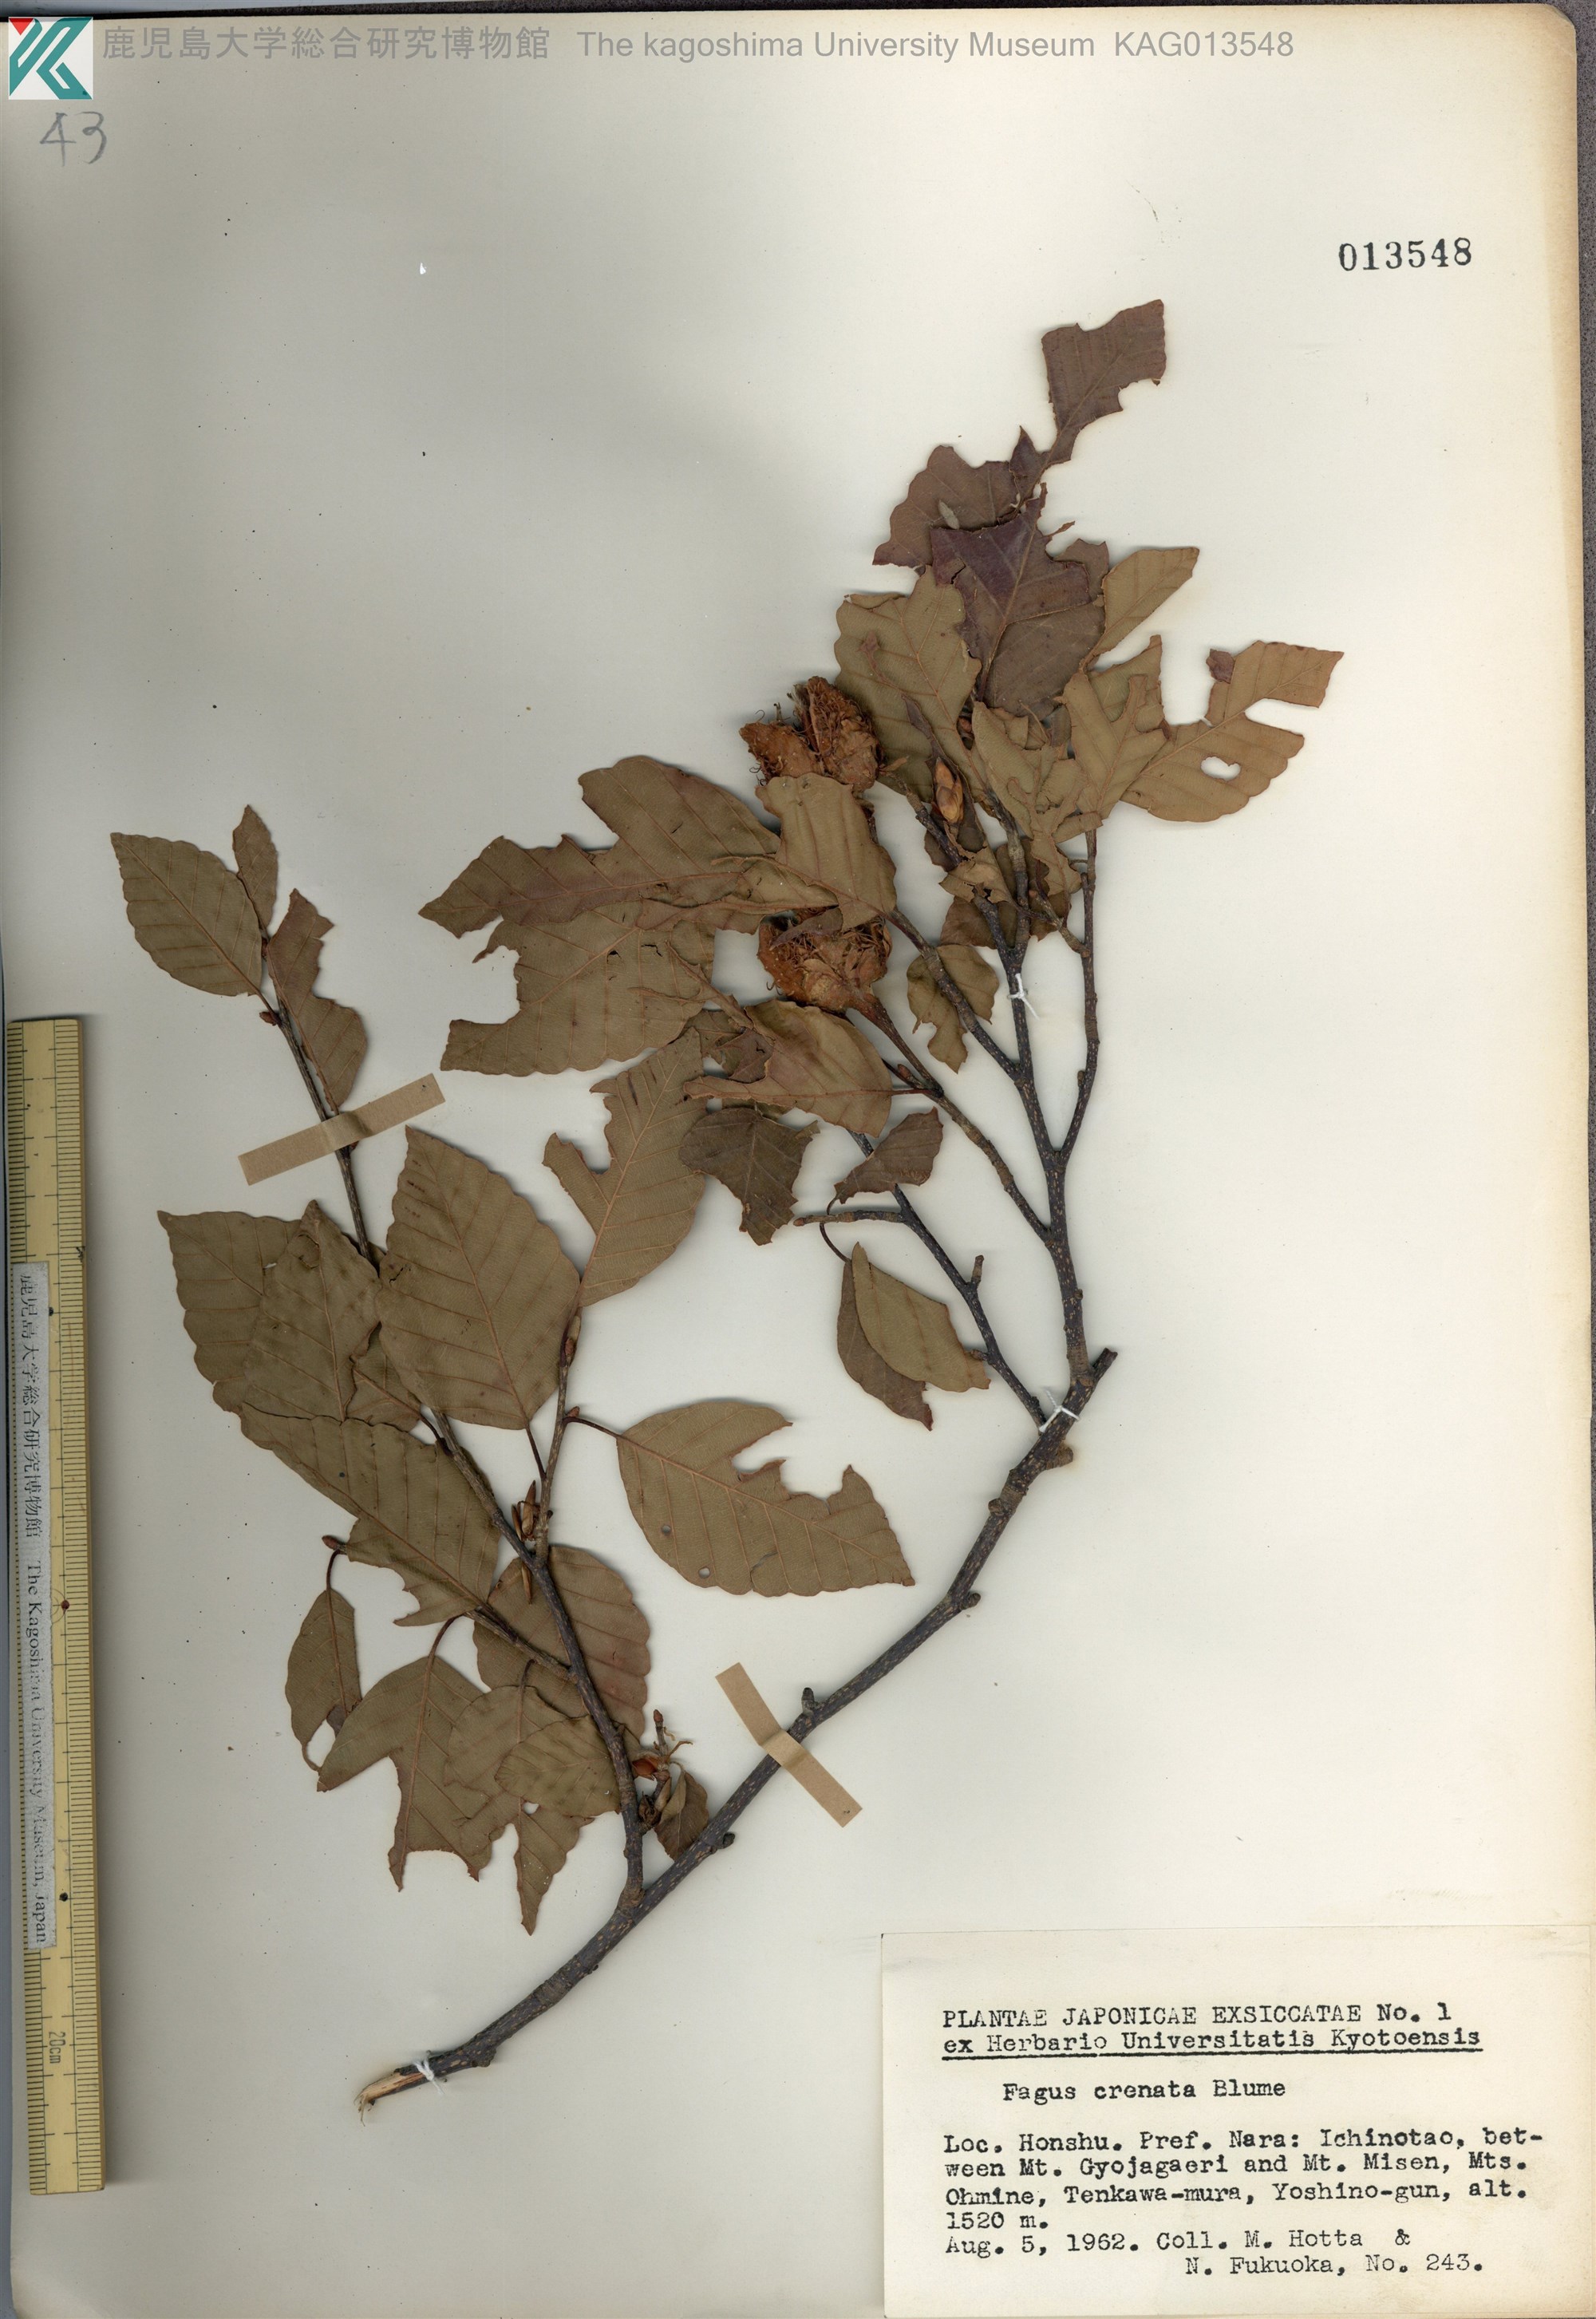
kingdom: Plantae
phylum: Tracheophyta
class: Magnoliopsida
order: Fagales
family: Fagaceae
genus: Fagus
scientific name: Fagus crenata
